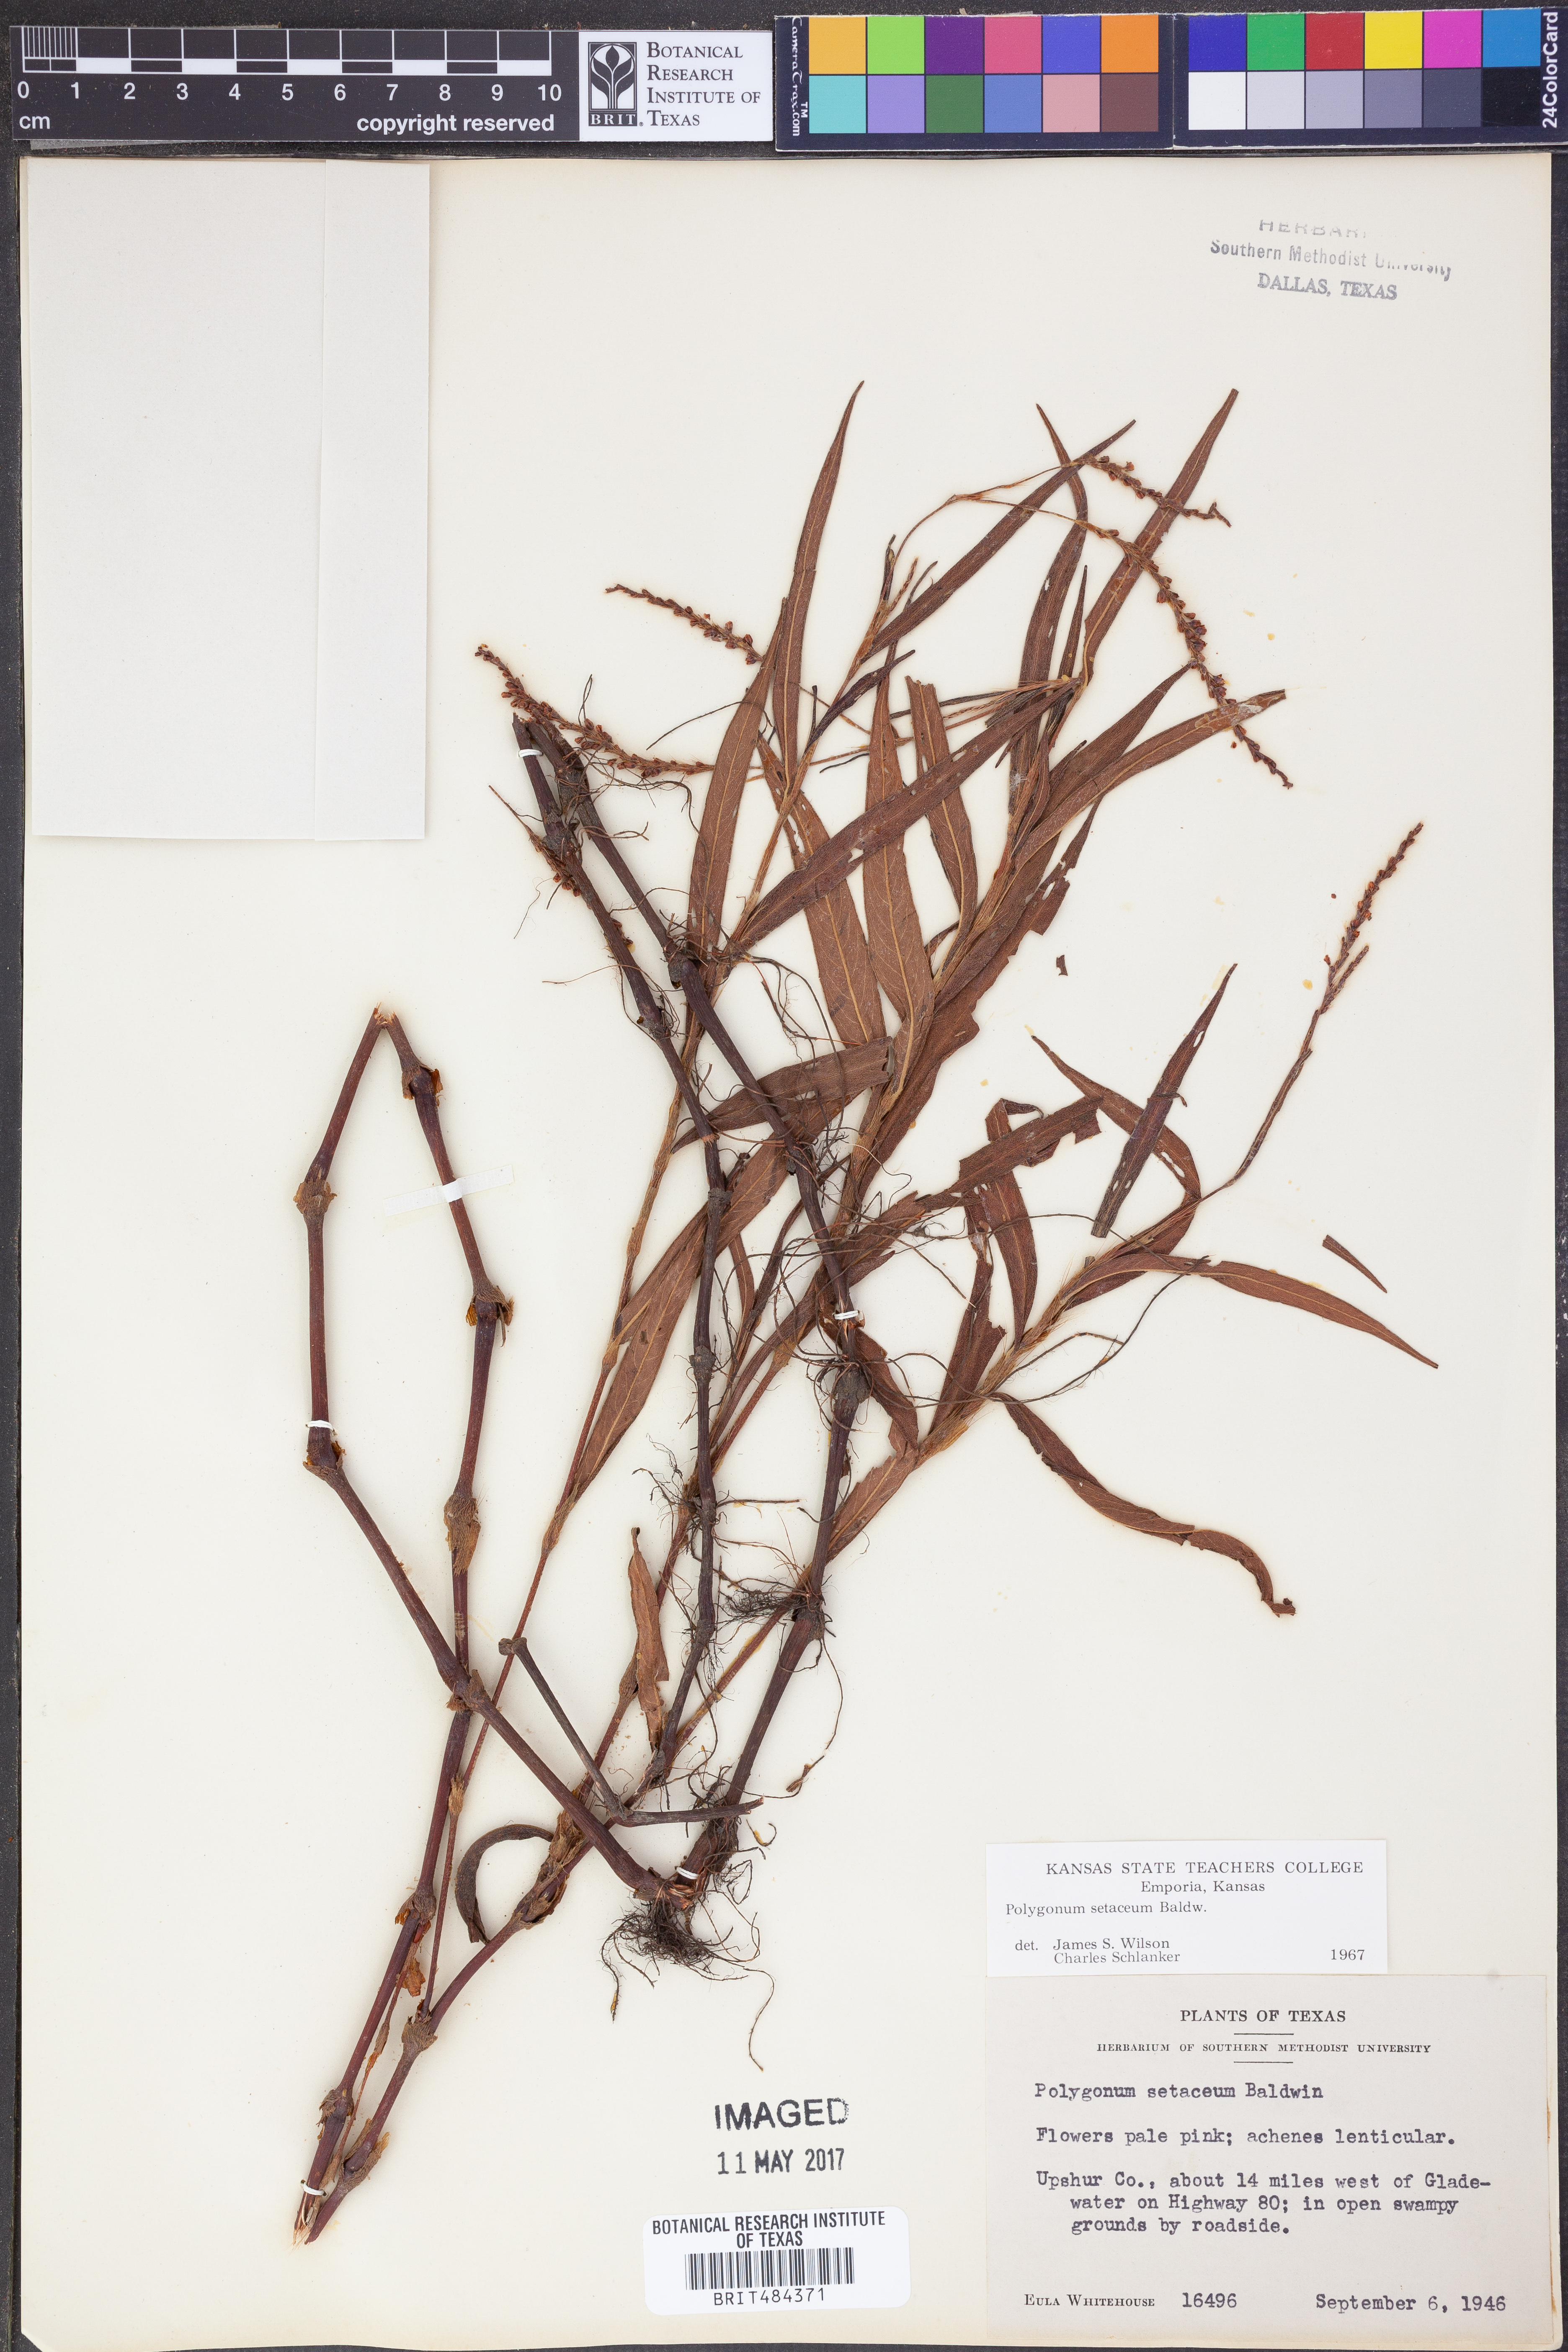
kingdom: Plantae
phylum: Tracheophyta
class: Magnoliopsida
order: Caryophyllales
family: Polygonaceae
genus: Persicaria
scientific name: Persicaria setacea
